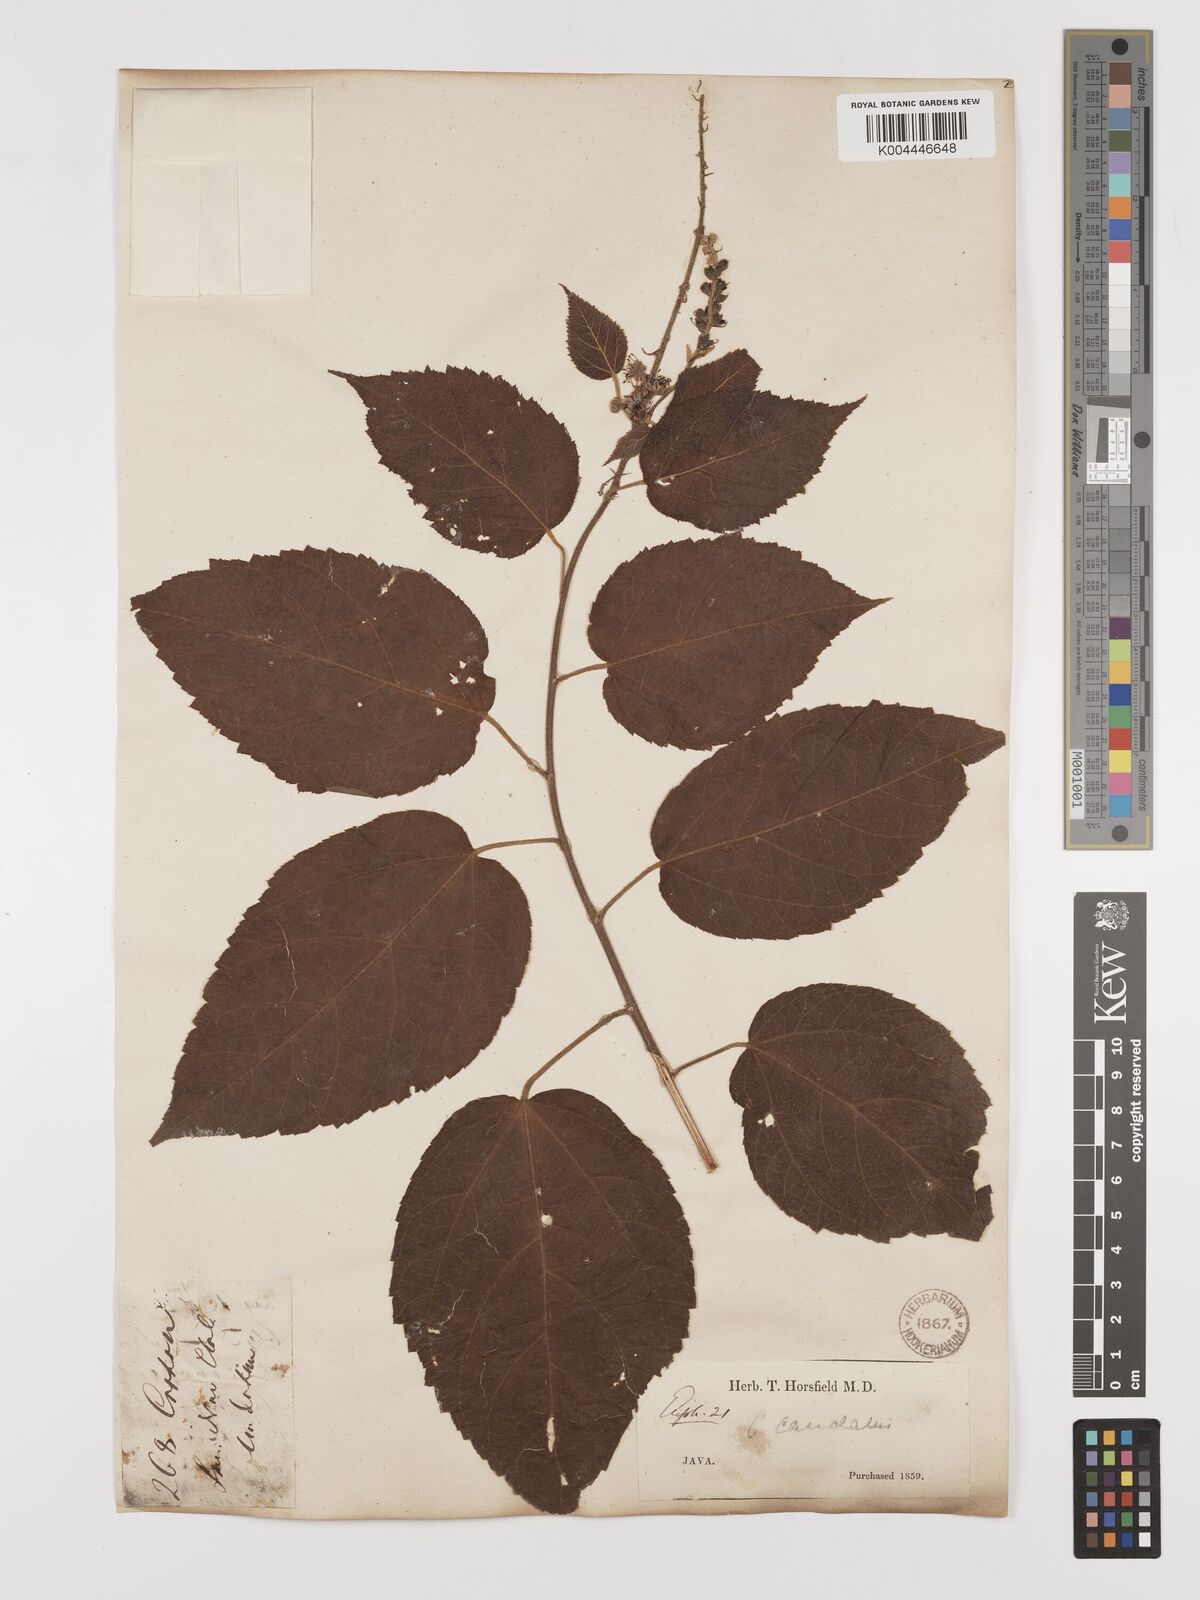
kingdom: Plantae
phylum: Tracheophyta
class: Magnoliopsida
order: Malpighiales
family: Euphorbiaceae
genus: Croton
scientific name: Croton caudatus
